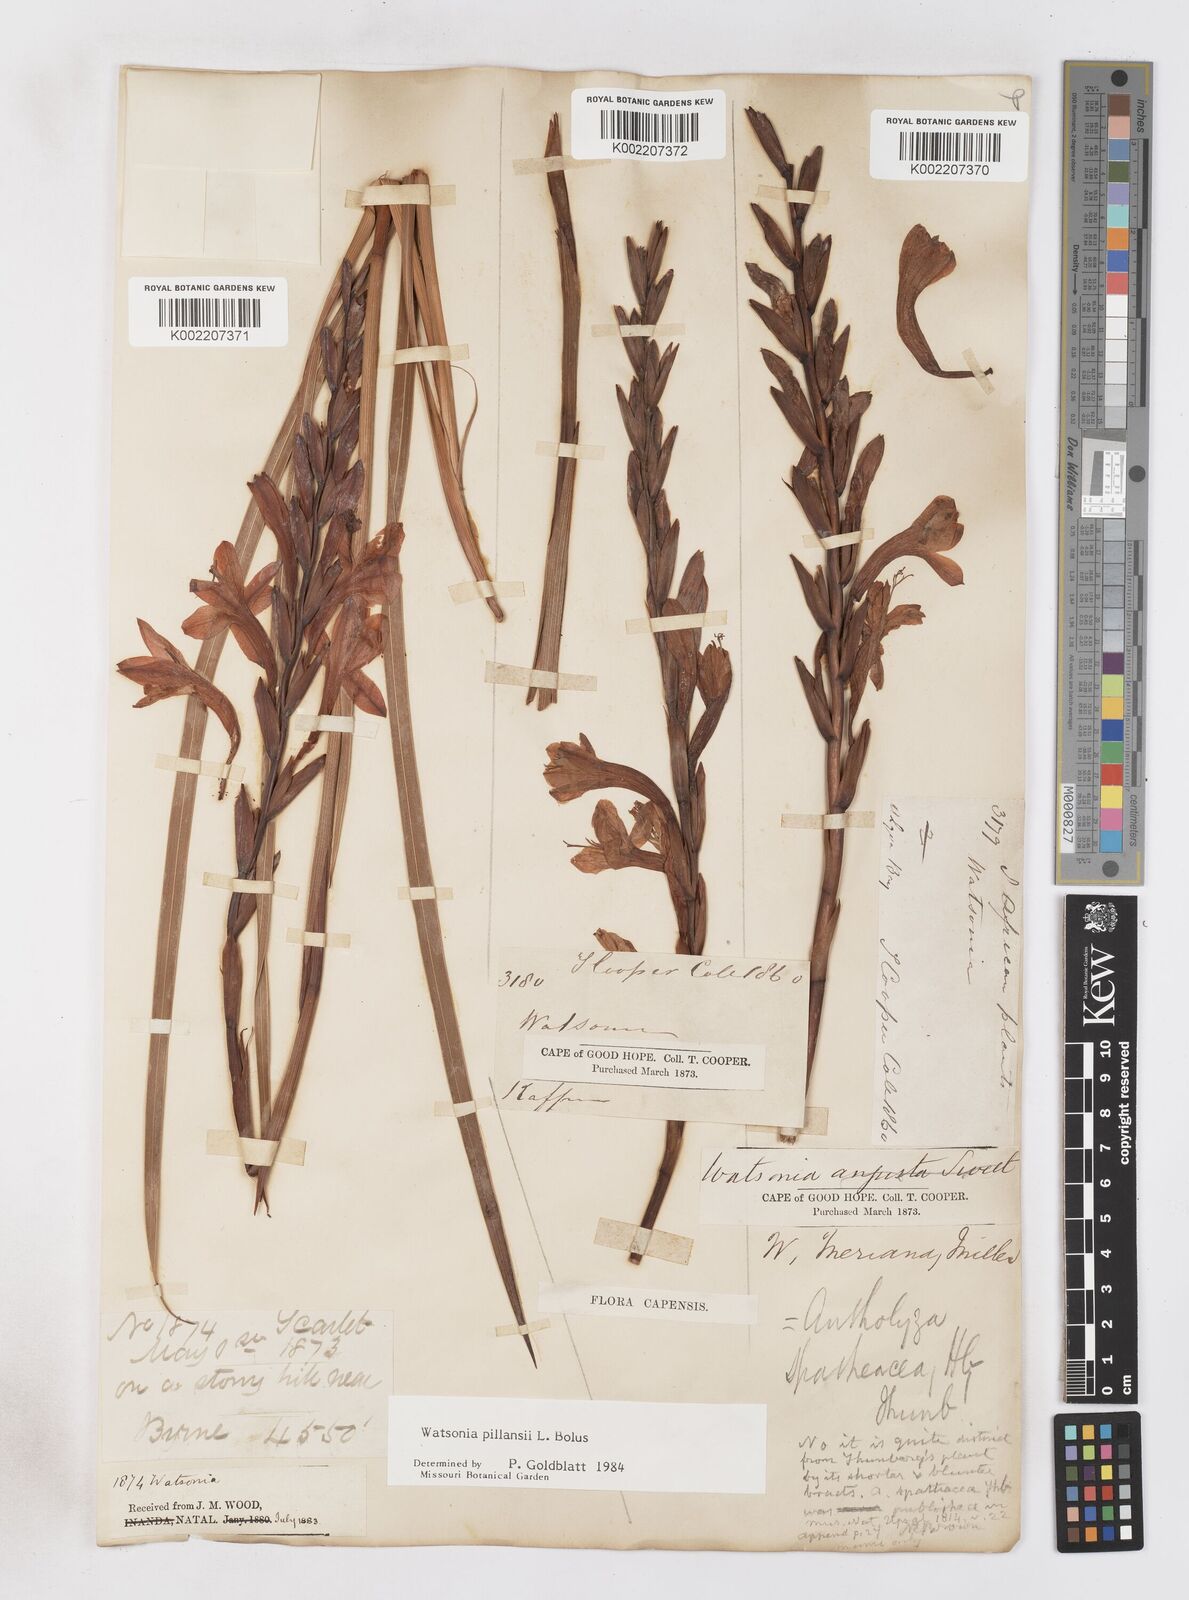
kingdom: Plantae
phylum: Tracheophyta
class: Liliopsida
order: Asparagales
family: Iridaceae
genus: Watsonia
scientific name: Watsonia pillansii
